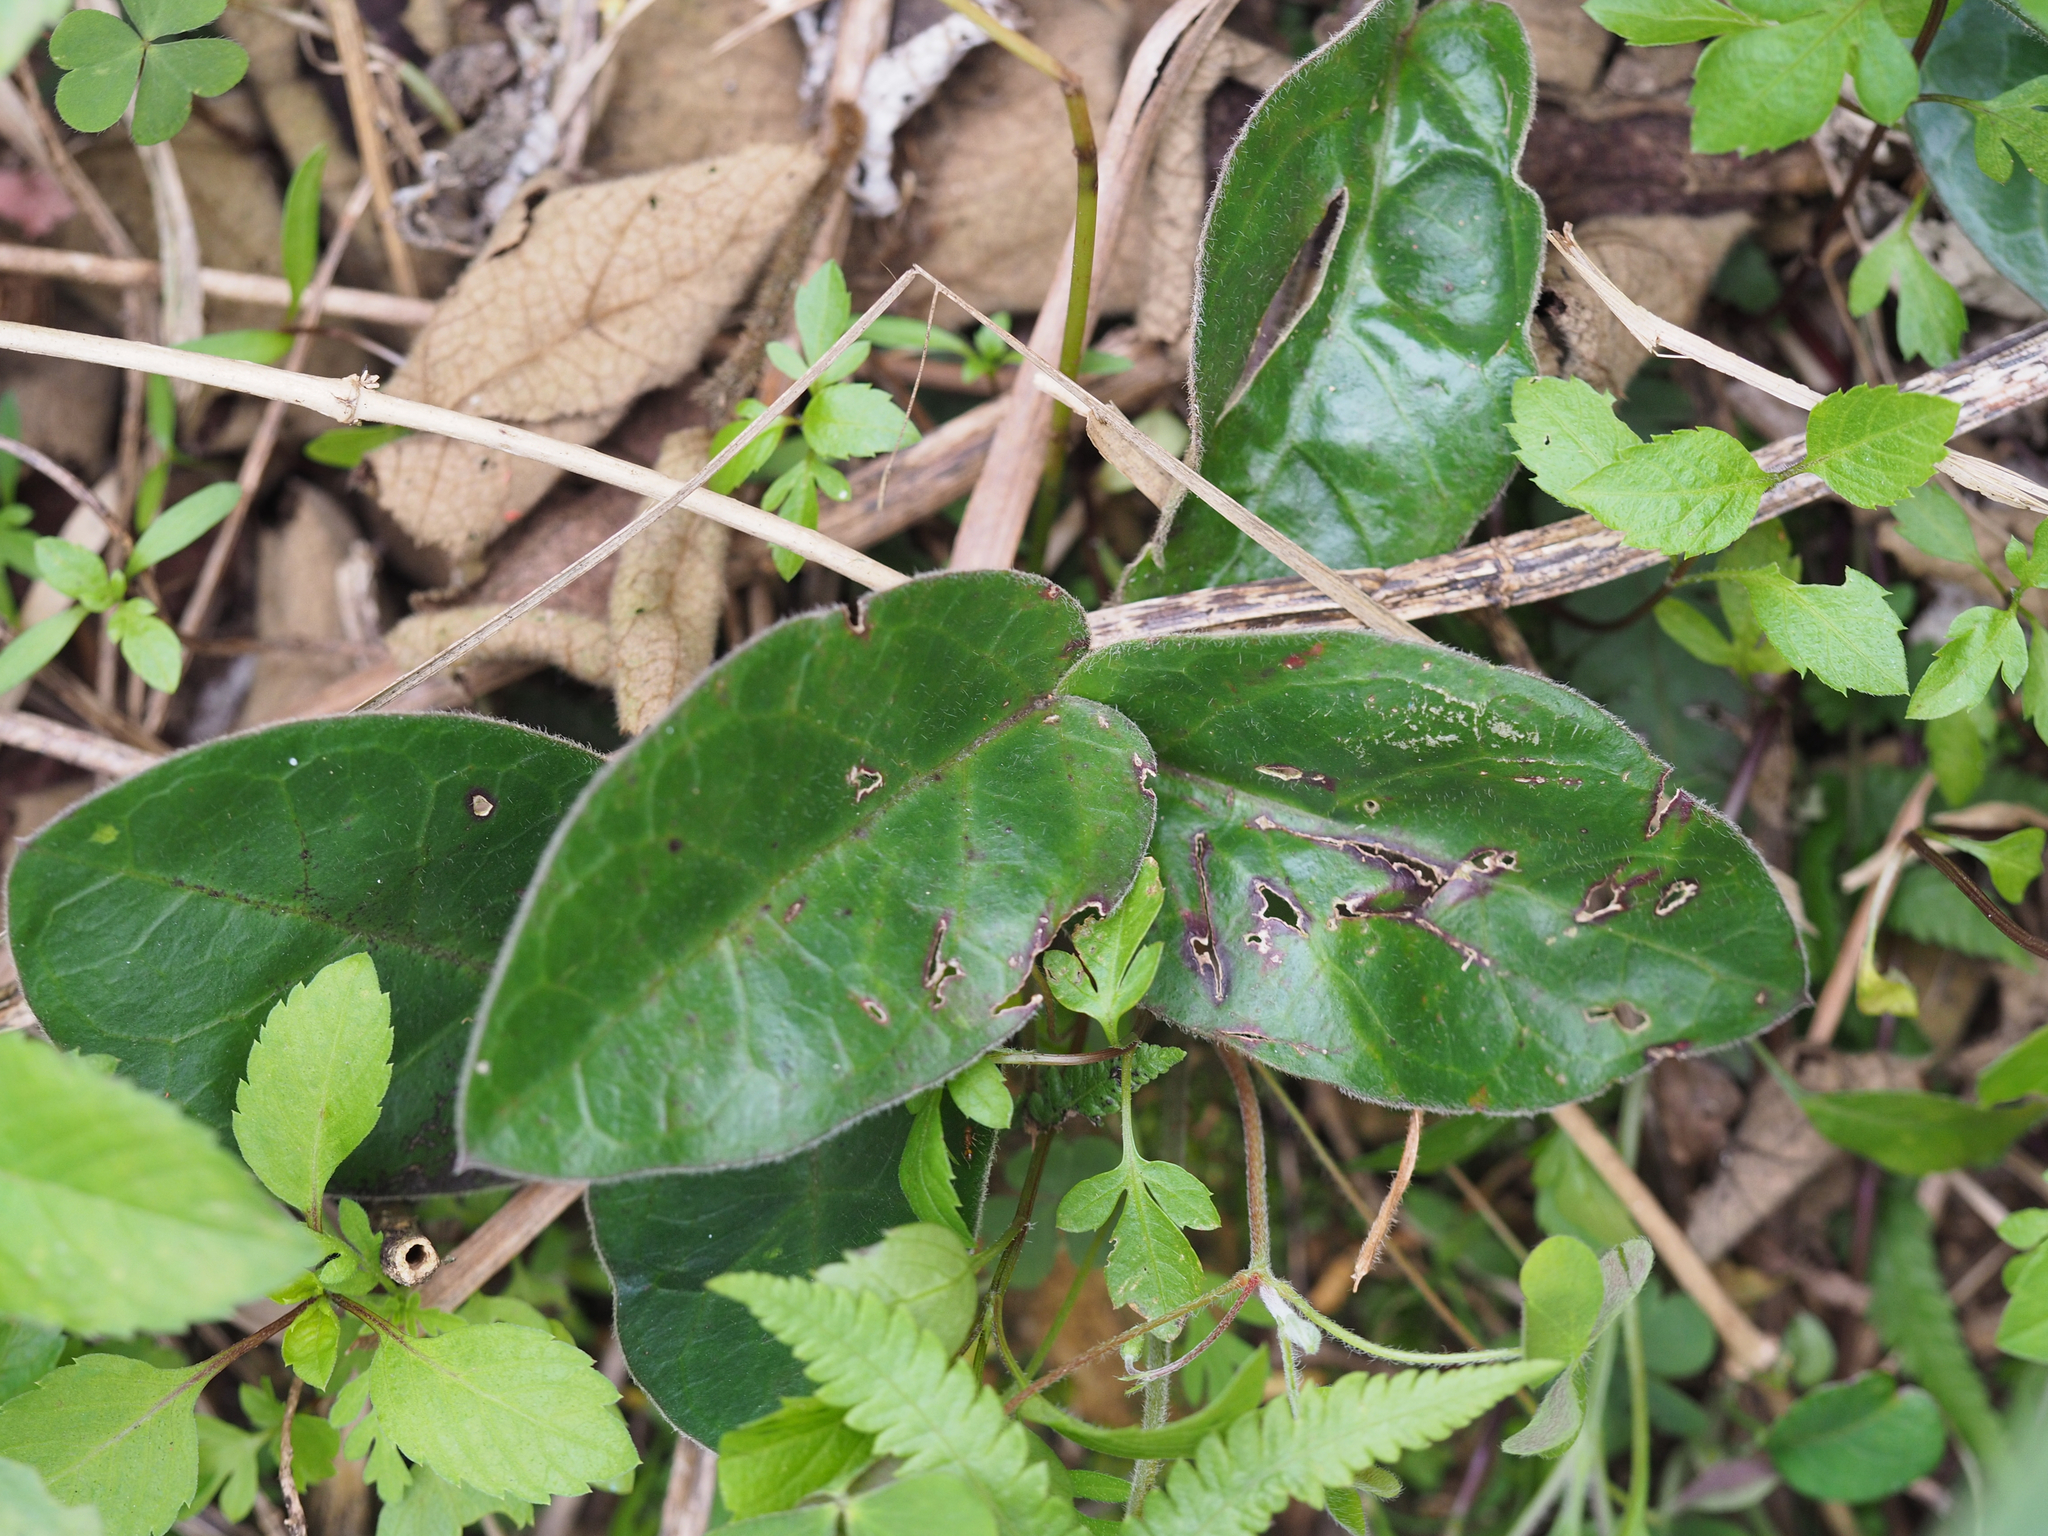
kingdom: Plantae
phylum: Tracheophyta
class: Magnoliopsida
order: Gentianales
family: Apocynaceae
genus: Vincetoxicum
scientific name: Vincetoxicum hirsutum
